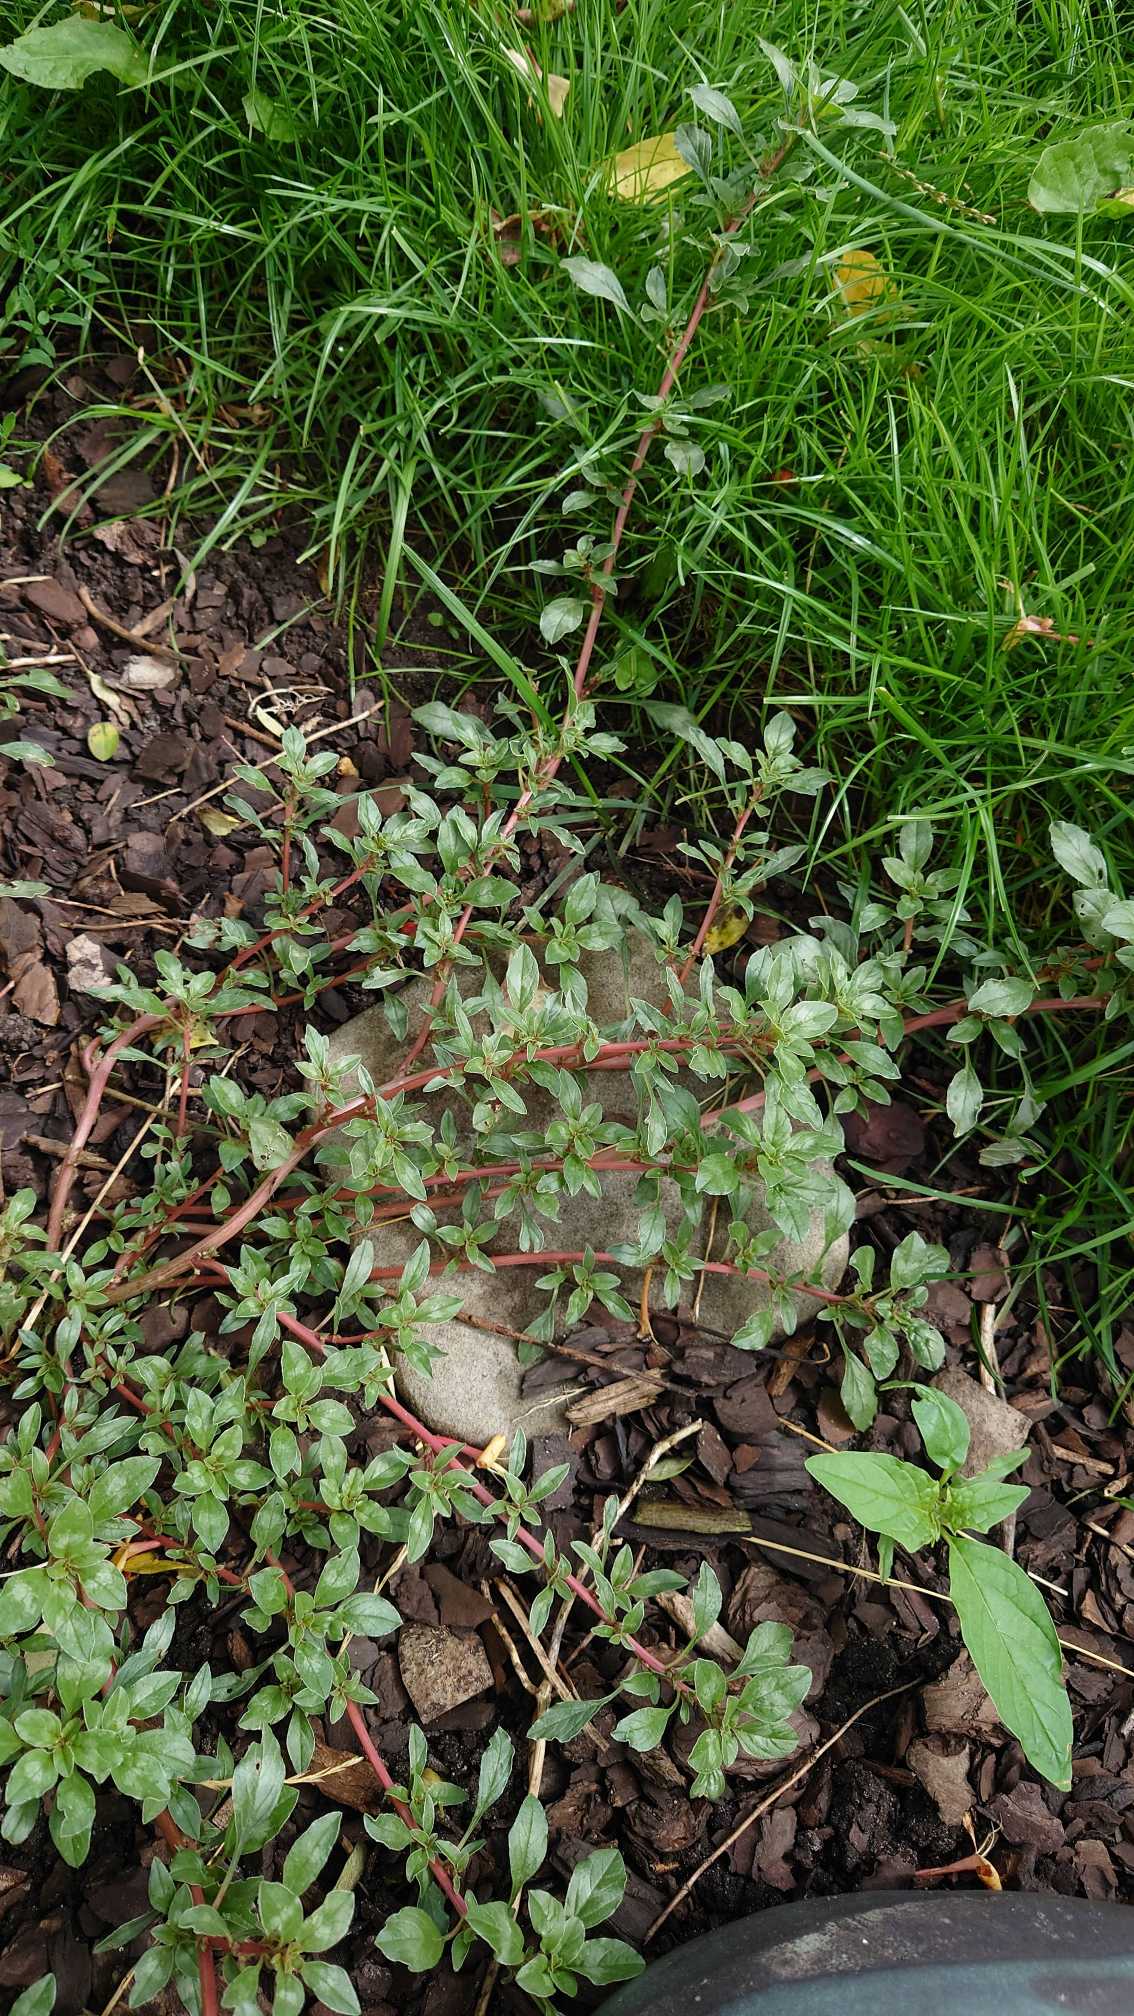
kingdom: Plantae
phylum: Tracheophyta
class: Magnoliopsida
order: Caryophyllales
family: Amaranthaceae
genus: Amaranthus
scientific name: Amaranthus
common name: Amarantslægten
